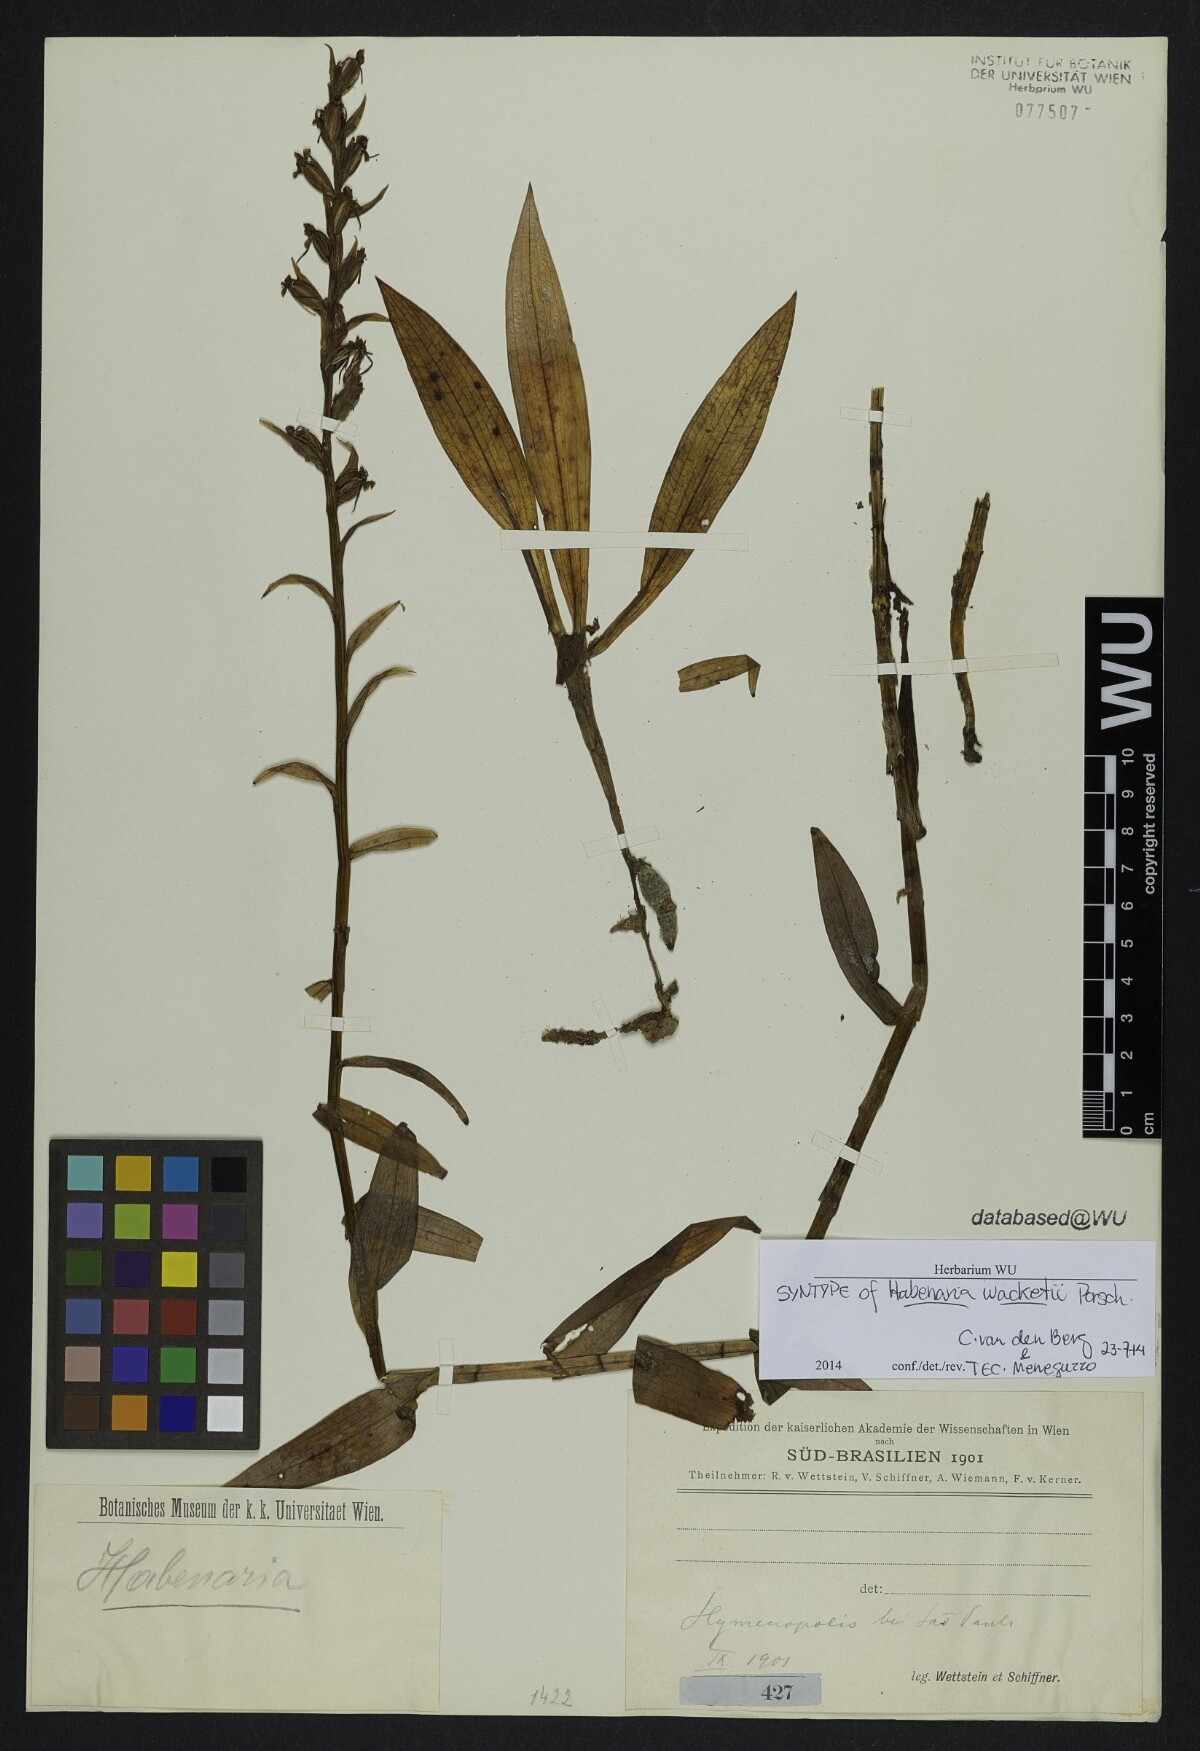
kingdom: Plantae
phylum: Tracheophyta
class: Liliopsida
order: Asparagales
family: Orchidaceae
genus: Habenaria
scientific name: Habenaria josephensis
